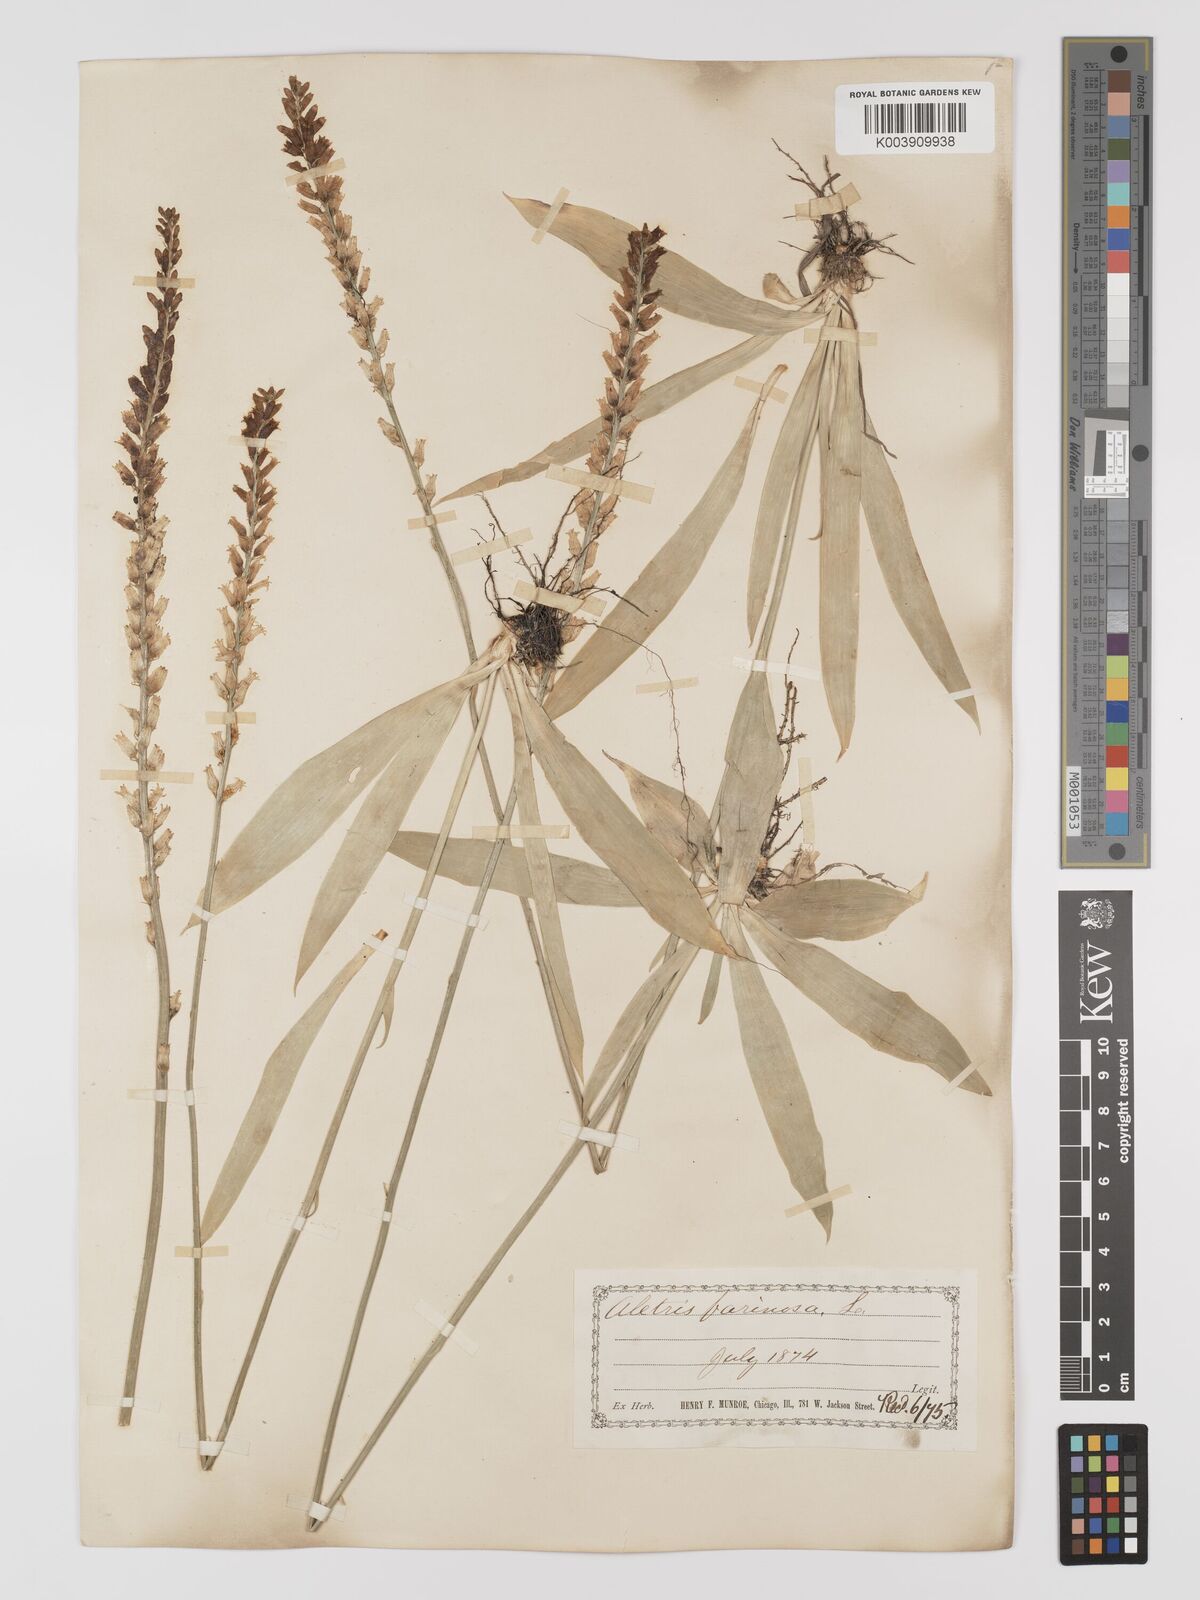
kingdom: Plantae
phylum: Tracheophyta
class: Liliopsida
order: Dioscoreales
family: Nartheciaceae
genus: Aletris
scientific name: Aletris farinosa
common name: Colicroot
